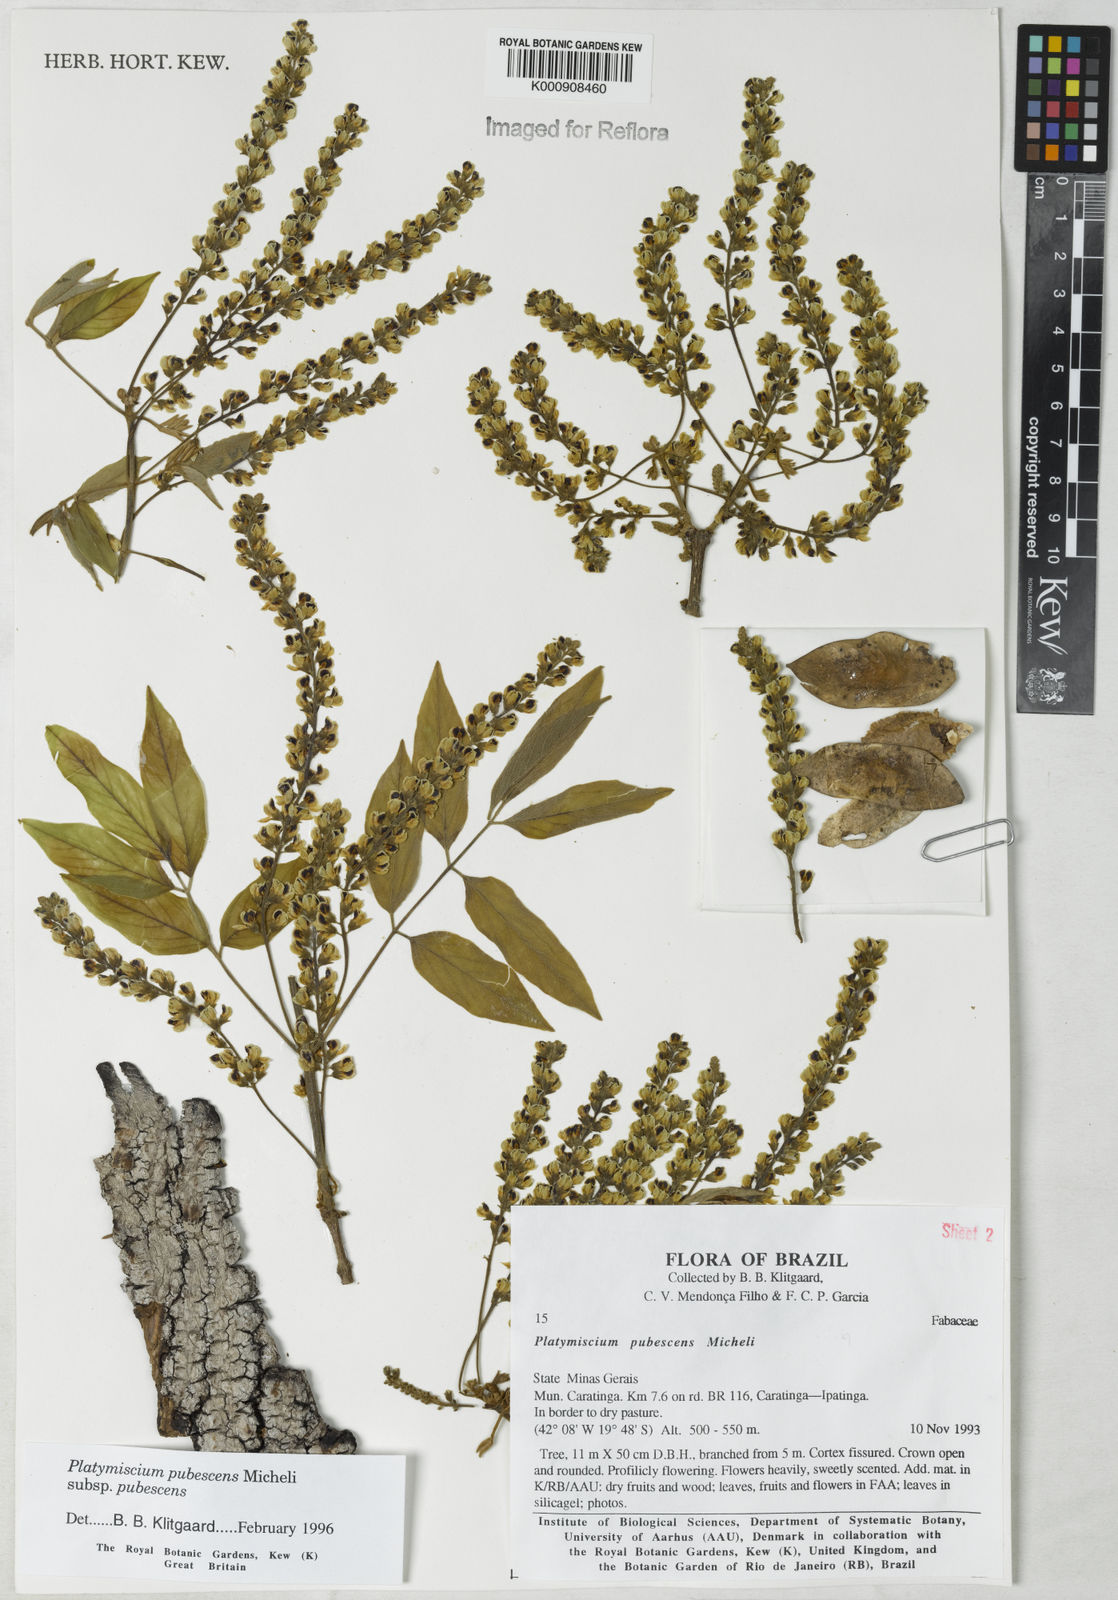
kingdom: Plantae
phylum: Tracheophyta
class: Magnoliopsida
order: Fabales
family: Fabaceae
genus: Platymiscium
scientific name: Platymiscium pubescens
